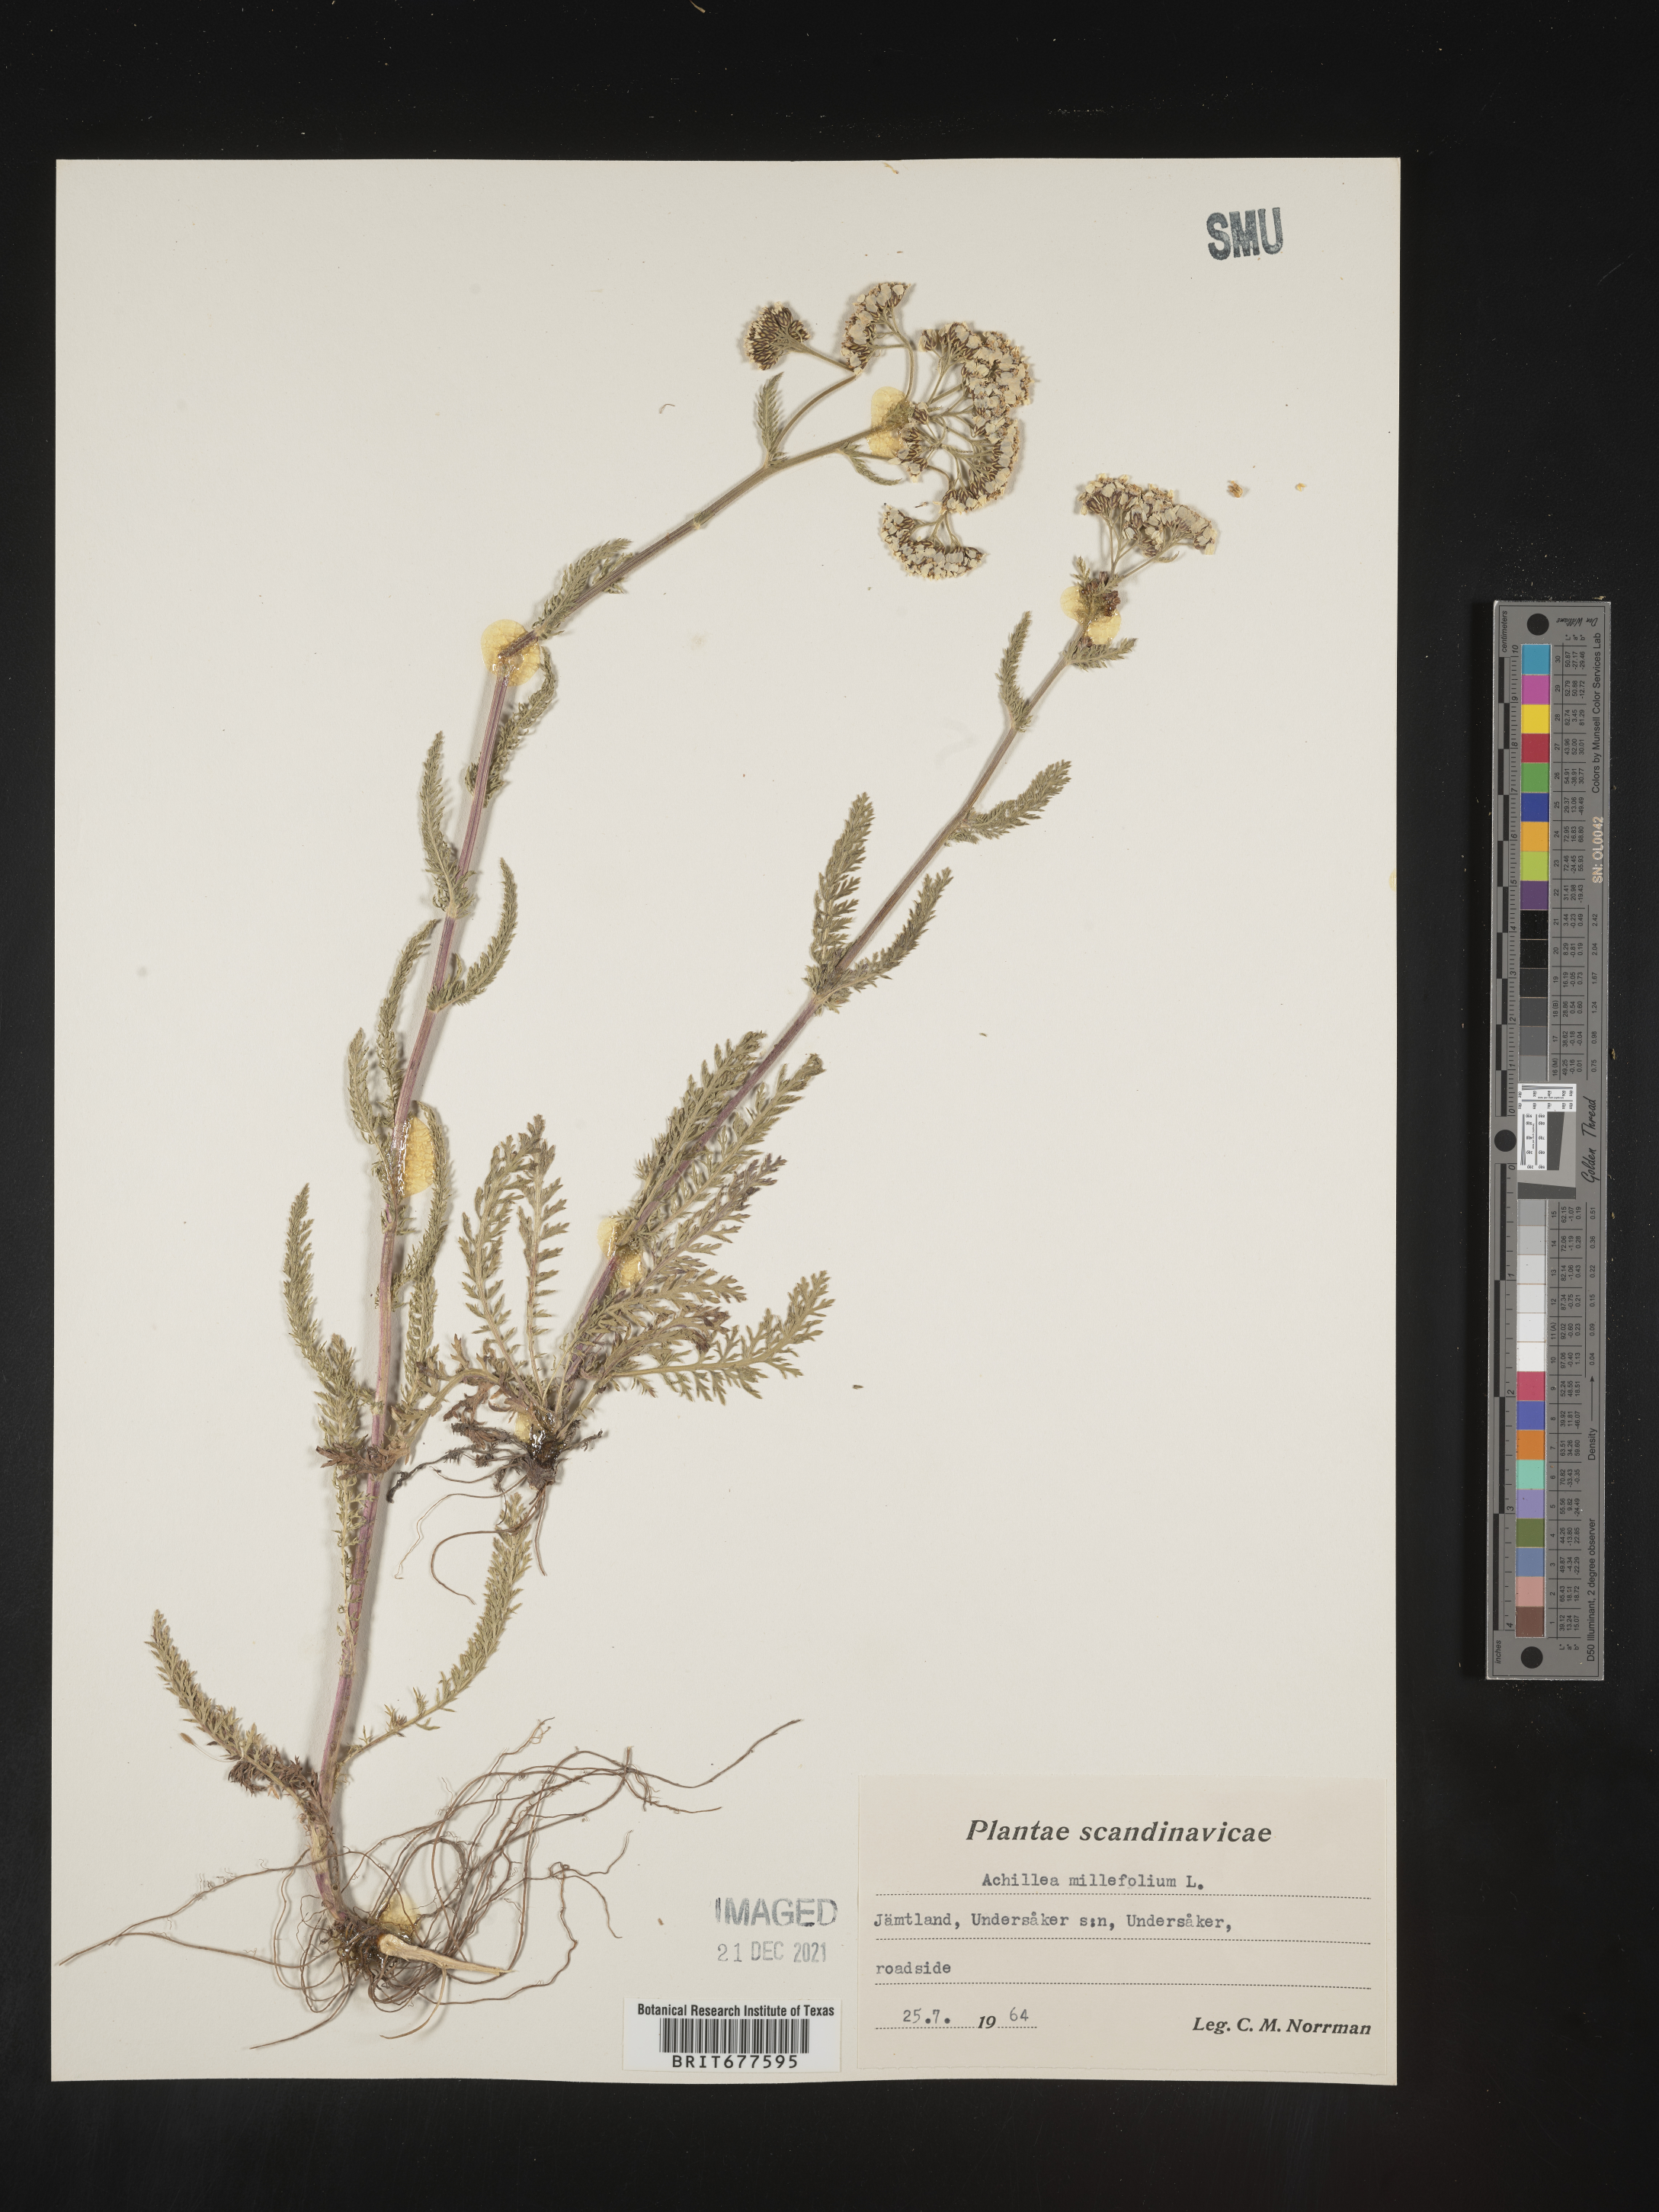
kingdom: Plantae
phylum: Tracheophyta
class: Magnoliopsida
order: Asterales
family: Asteraceae
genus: Achillea
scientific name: Achillea millefolium
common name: Yarrow
